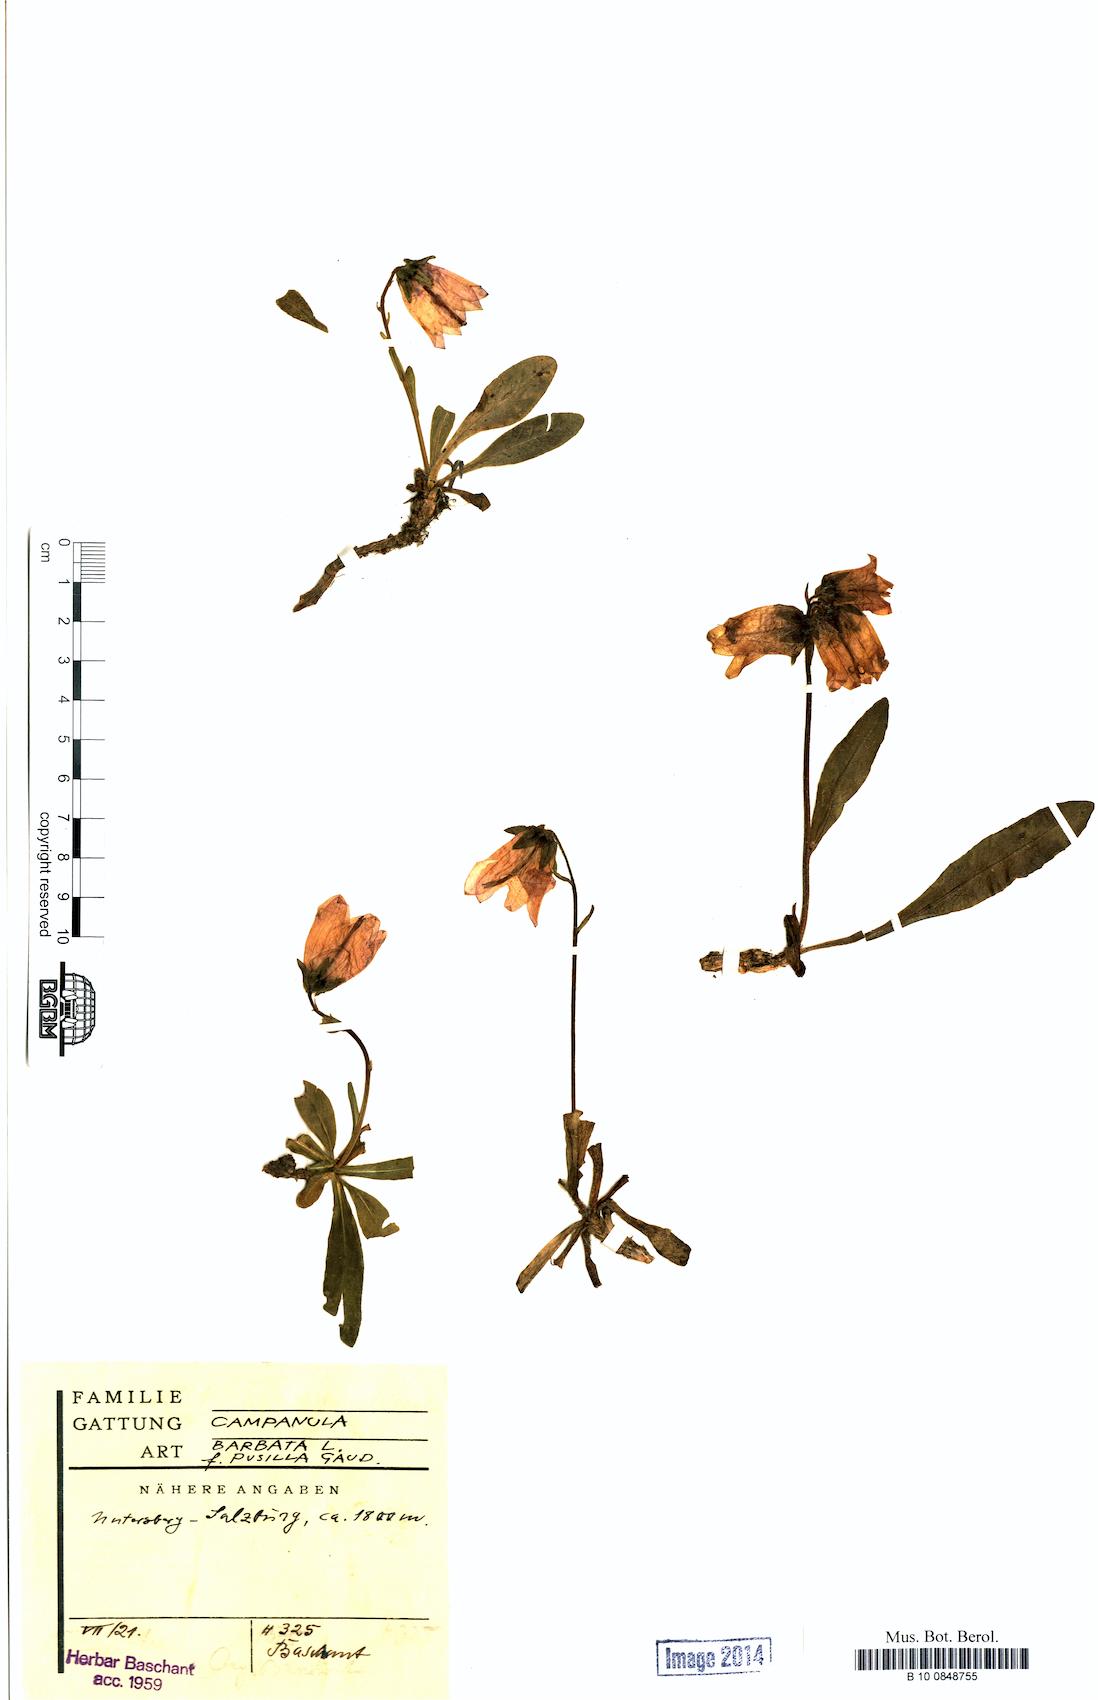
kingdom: Plantae
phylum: Tracheophyta
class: Magnoliopsida
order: Asterales
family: Campanulaceae
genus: Campanula
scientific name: Campanula barbata
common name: Bearded bellflower
